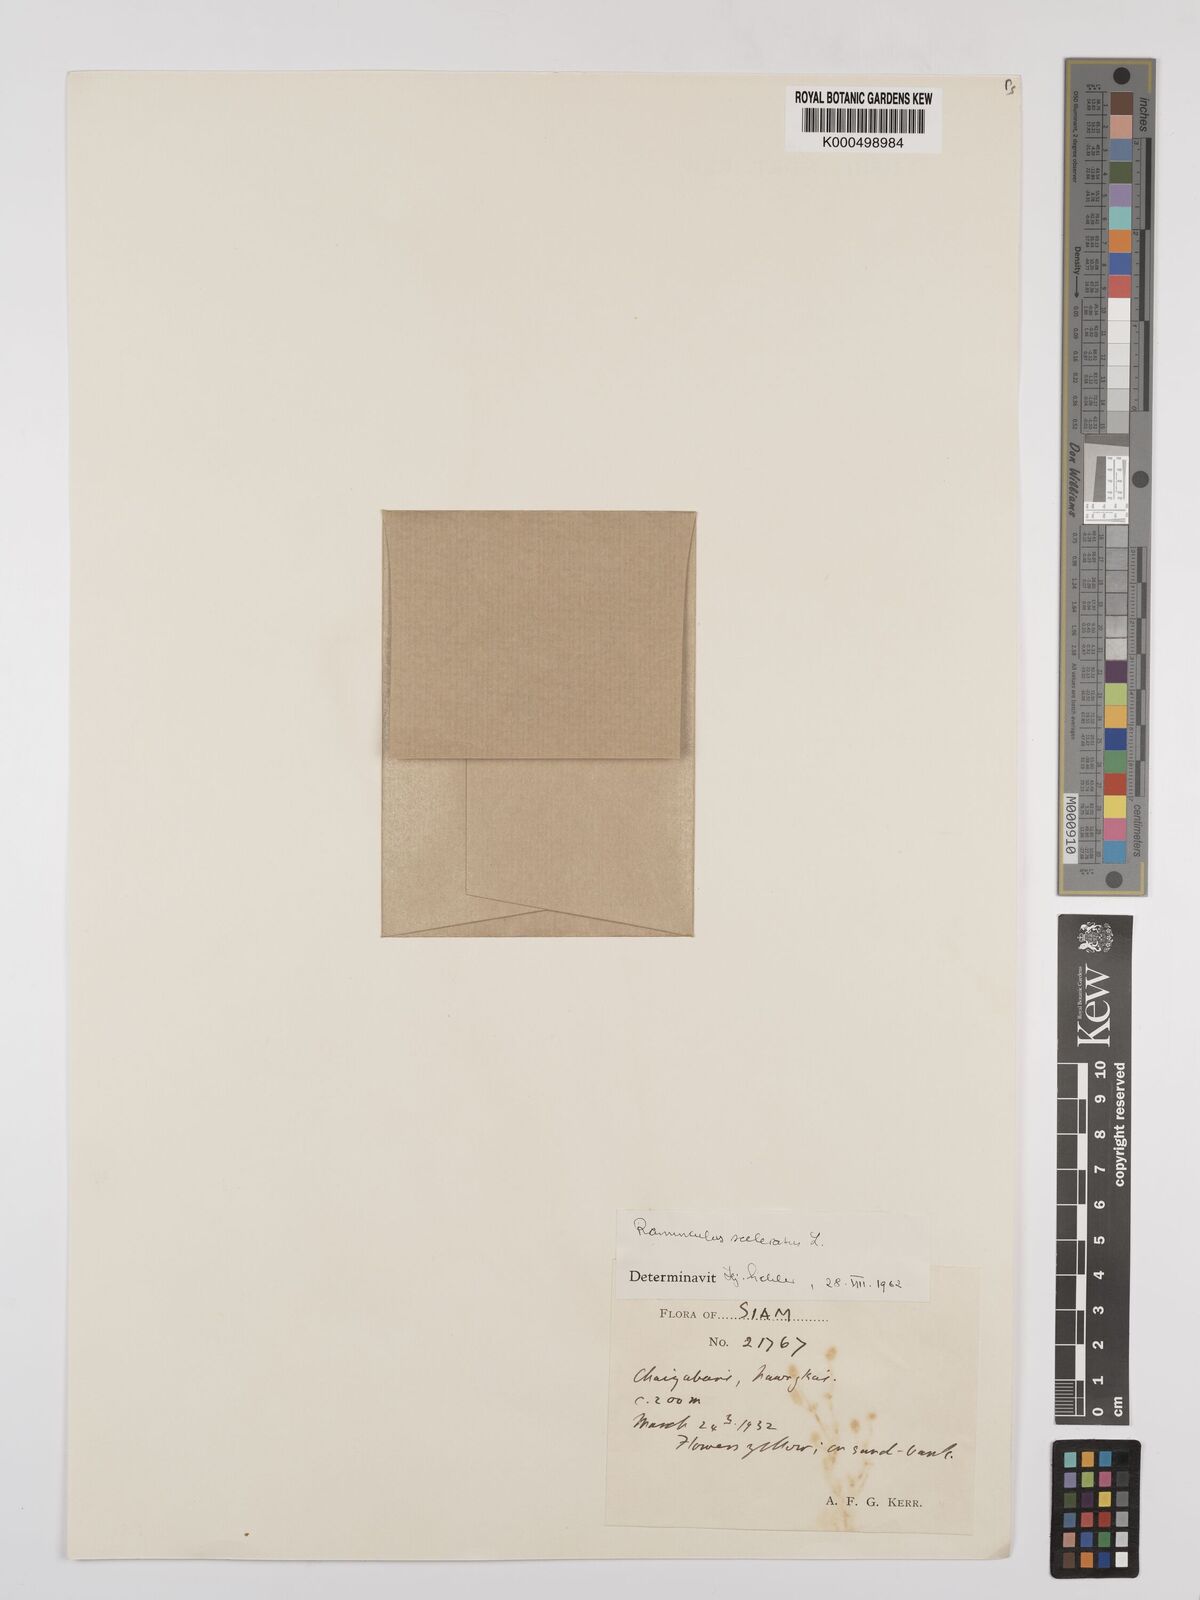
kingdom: Plantae
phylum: Tracheophyta
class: Magnoliopsida
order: Ranunculales
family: Ranunculaceae
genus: Ranunculus
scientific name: Ranunculus sceleratus
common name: Celery-leaved buttercup
